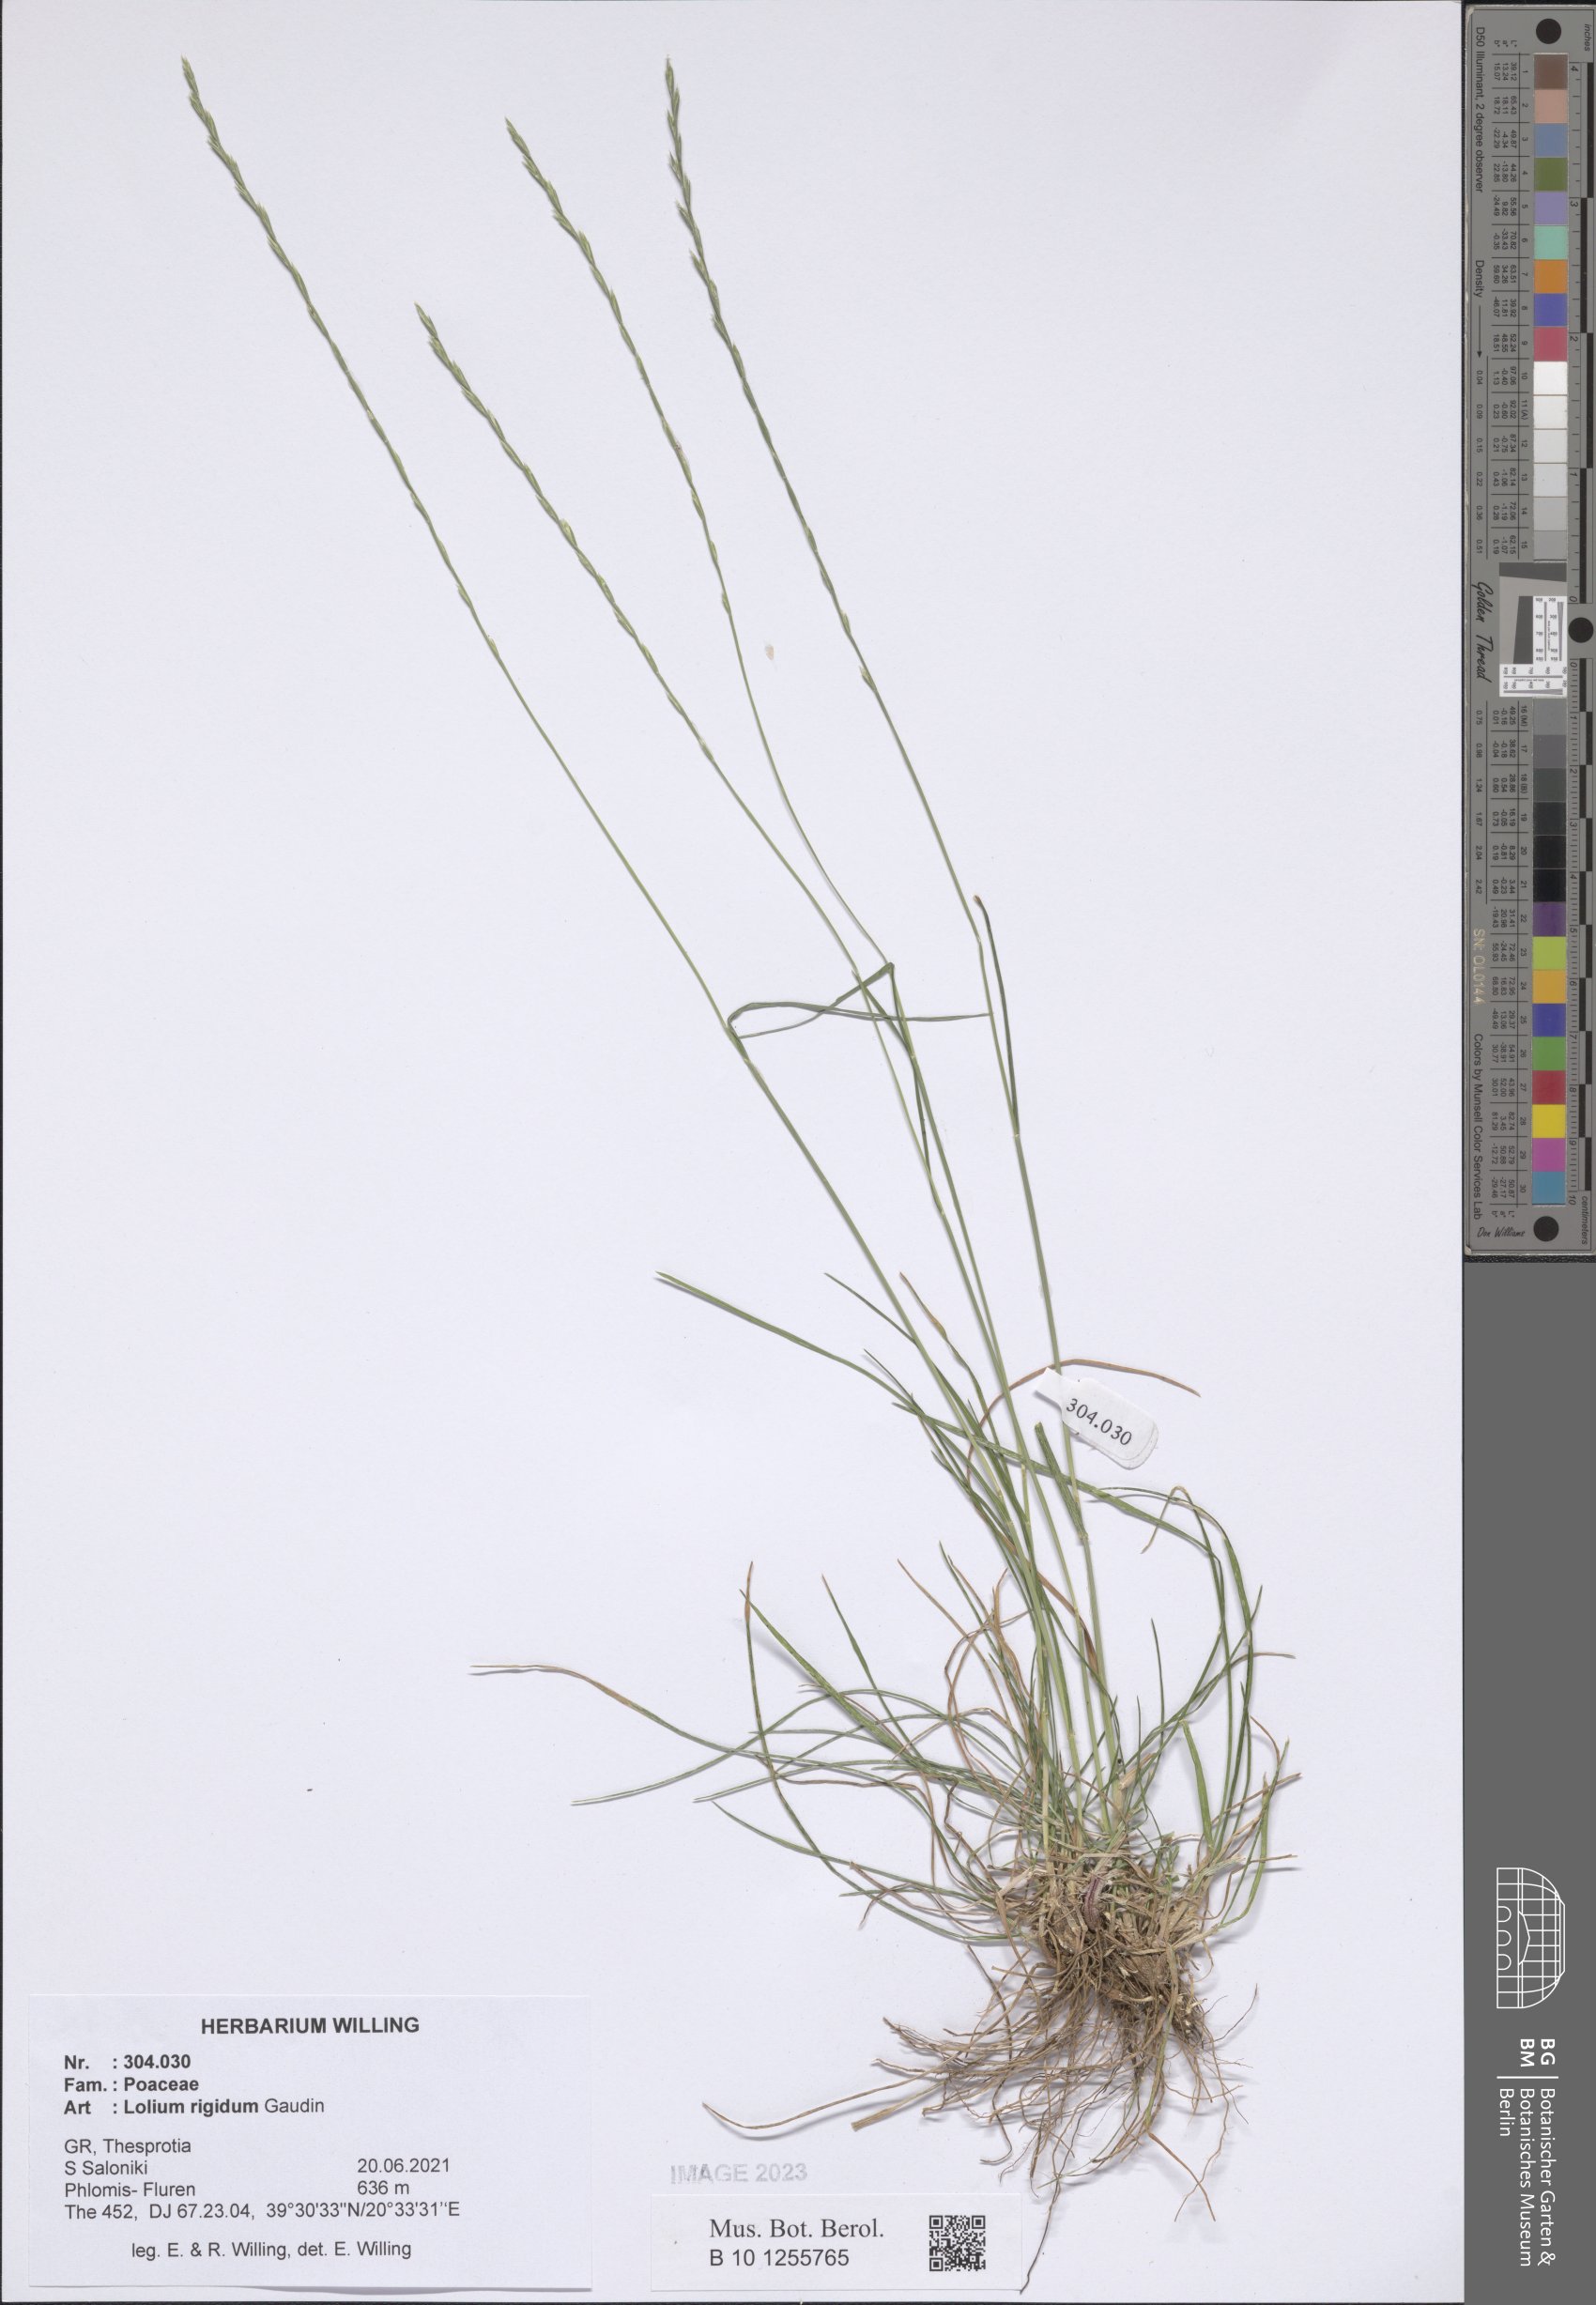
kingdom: Plantae
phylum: Tracheophyta
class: Liliopsida
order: Poales
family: Poaceae
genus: Lolium
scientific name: Lolium rigidum
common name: Wimmera ryegrass
